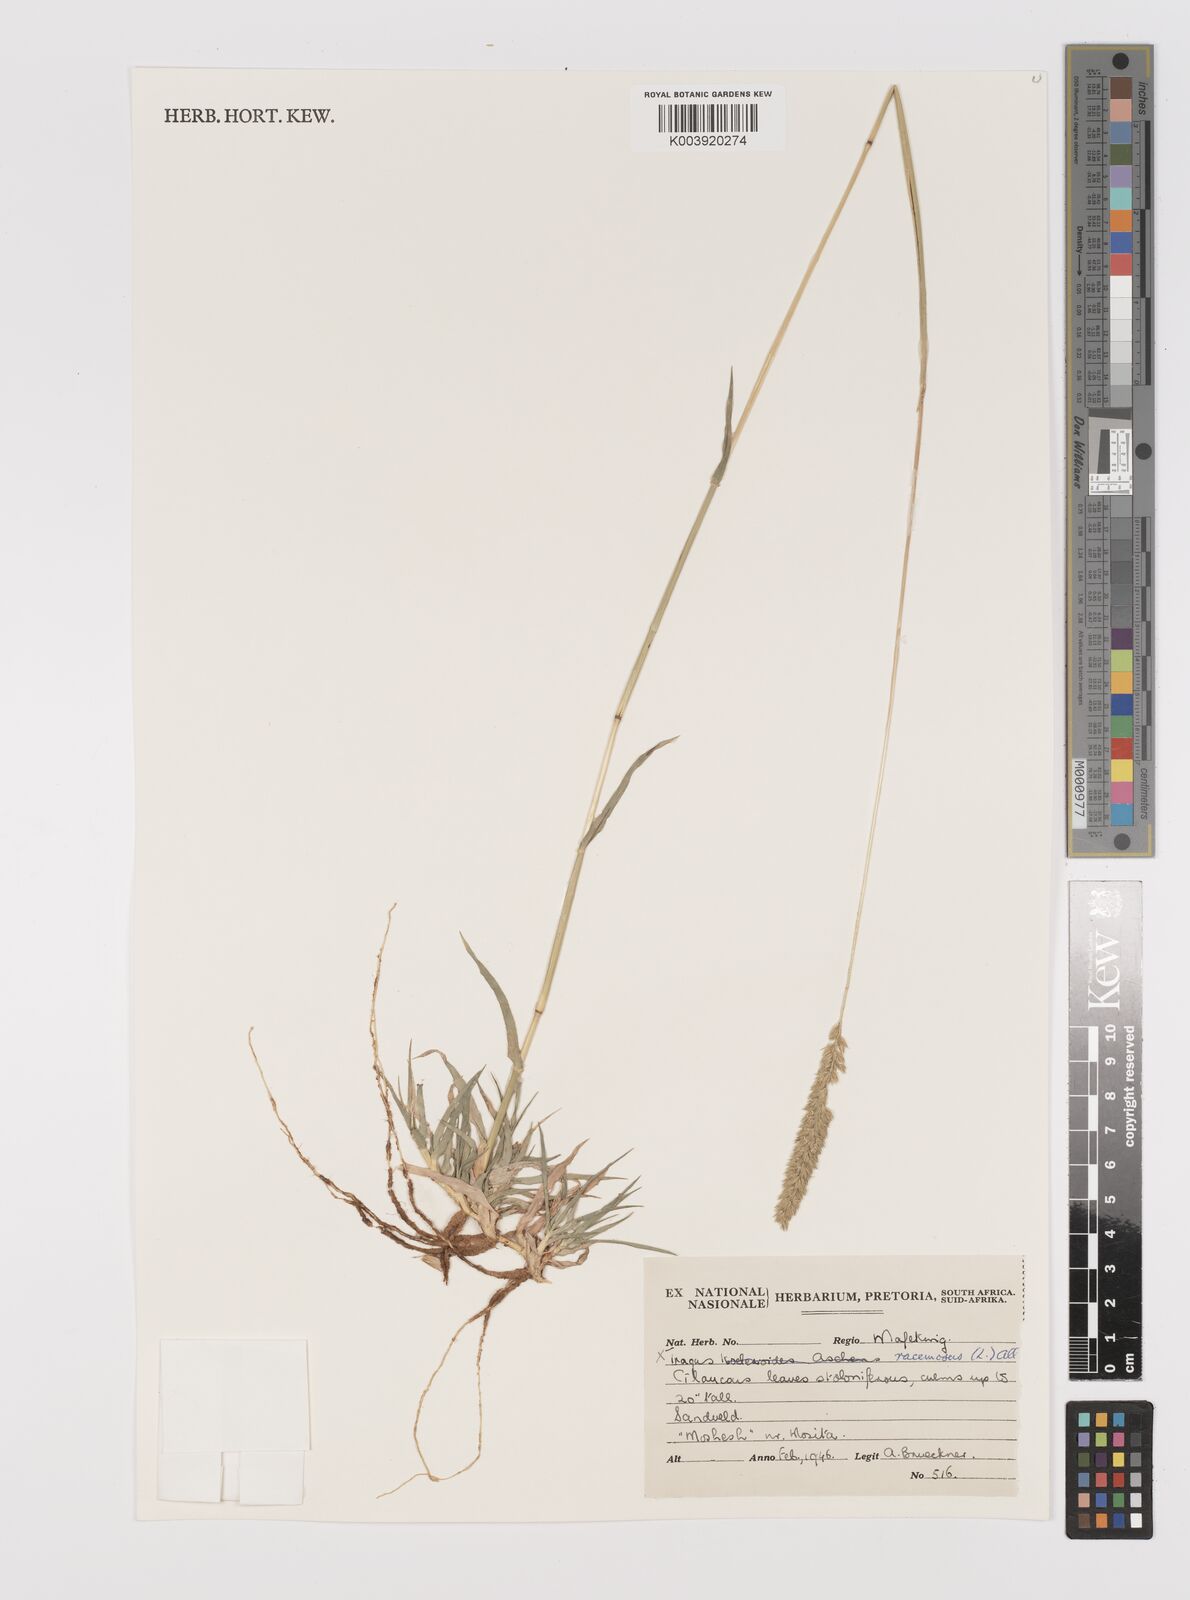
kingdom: Plantae
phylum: Tracheophyta
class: Liliopsida
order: Poales
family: Poaceae
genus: Tragus
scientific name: Tragus racemosus
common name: European bur-grass
